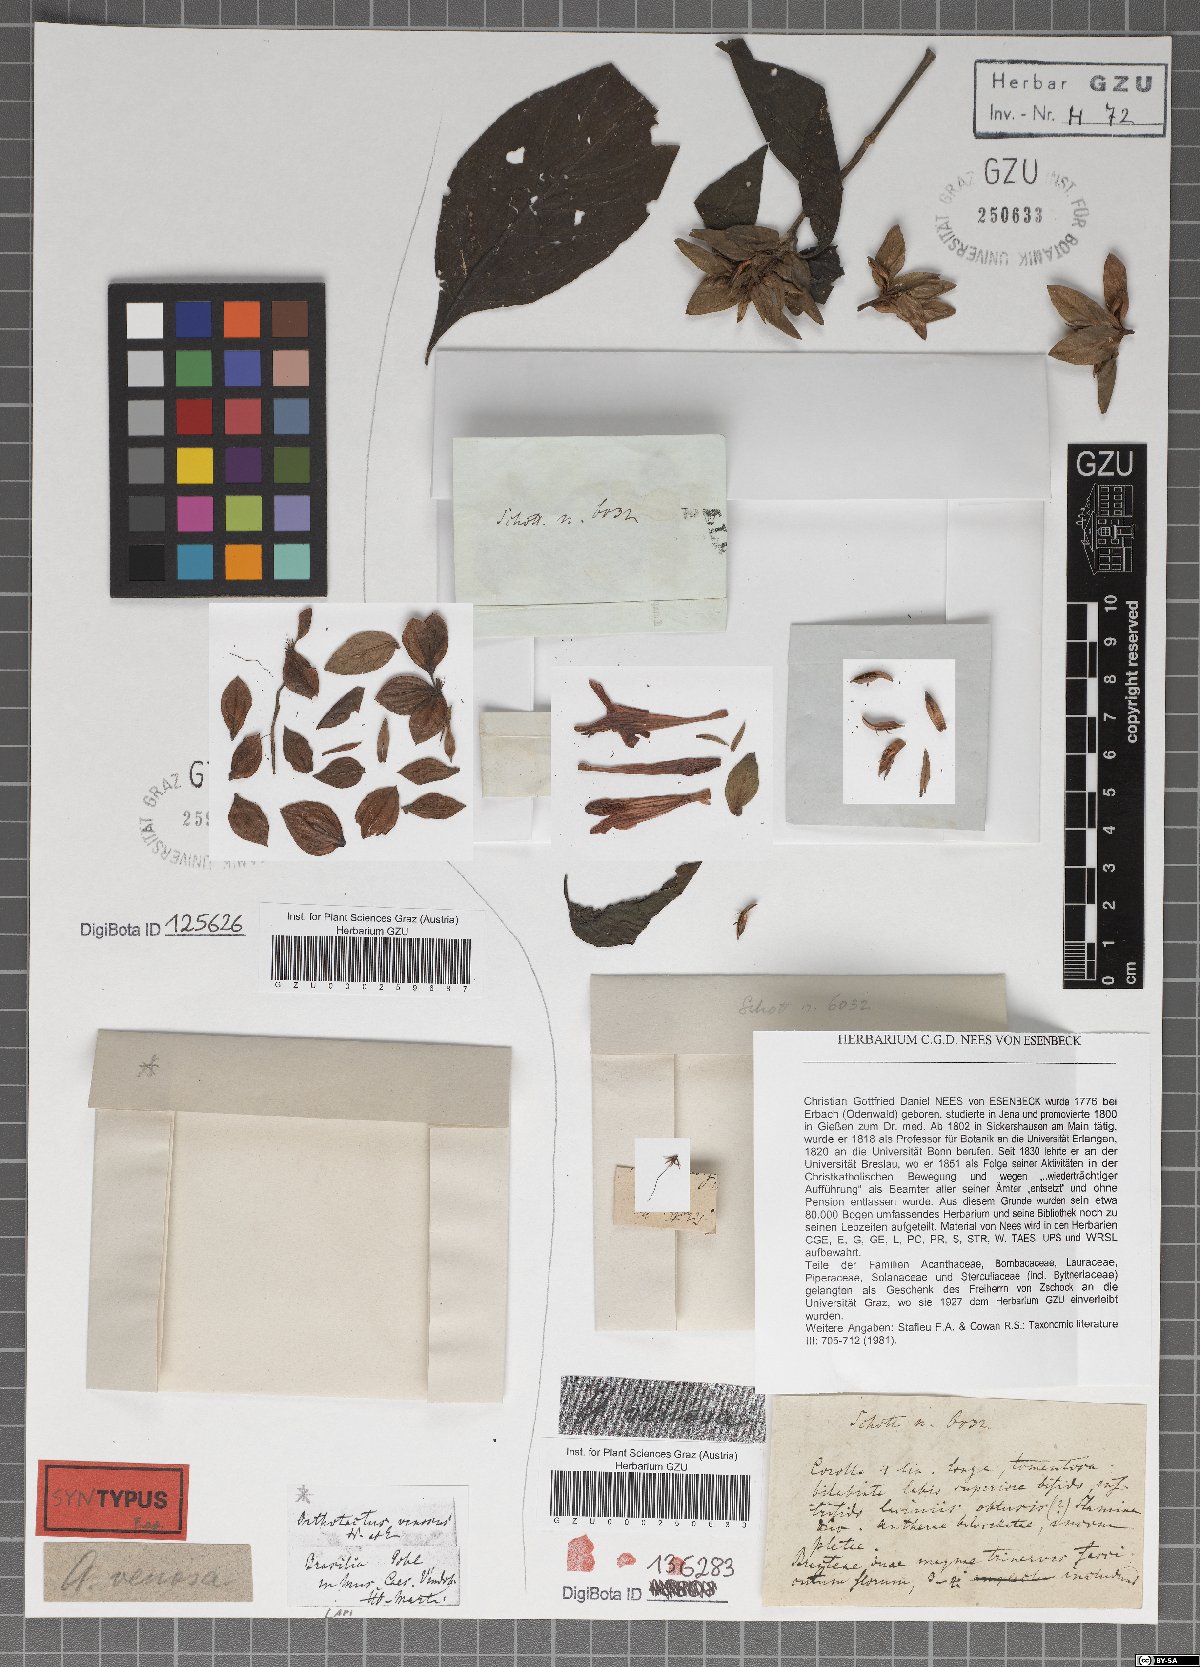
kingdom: Plantae
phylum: Tracheophyta
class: Magnoliopsida
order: Lamiales
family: Acanthaceae
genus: Justicia
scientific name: Justicia aequilabris
